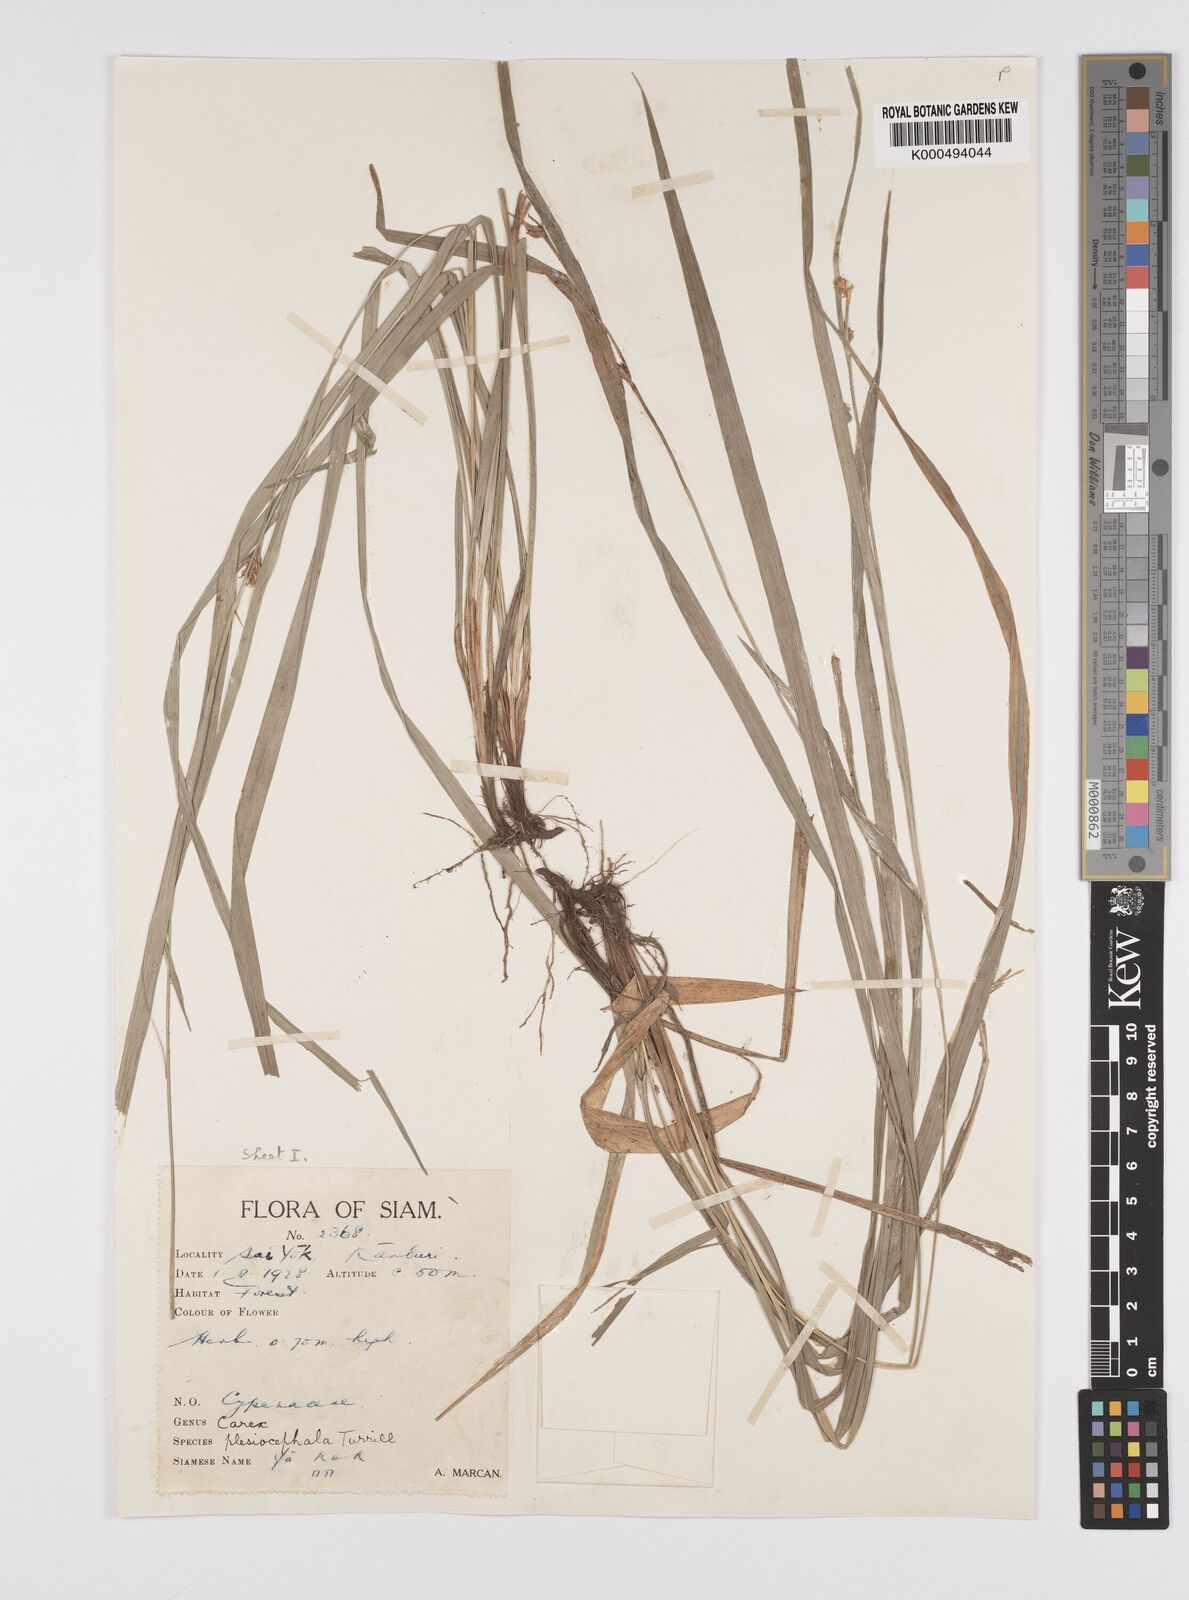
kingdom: Plantae
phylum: Tracheophyta
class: Liliopsida
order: Poales
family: Cyperaceae
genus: Carex
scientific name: Carex tricephala
